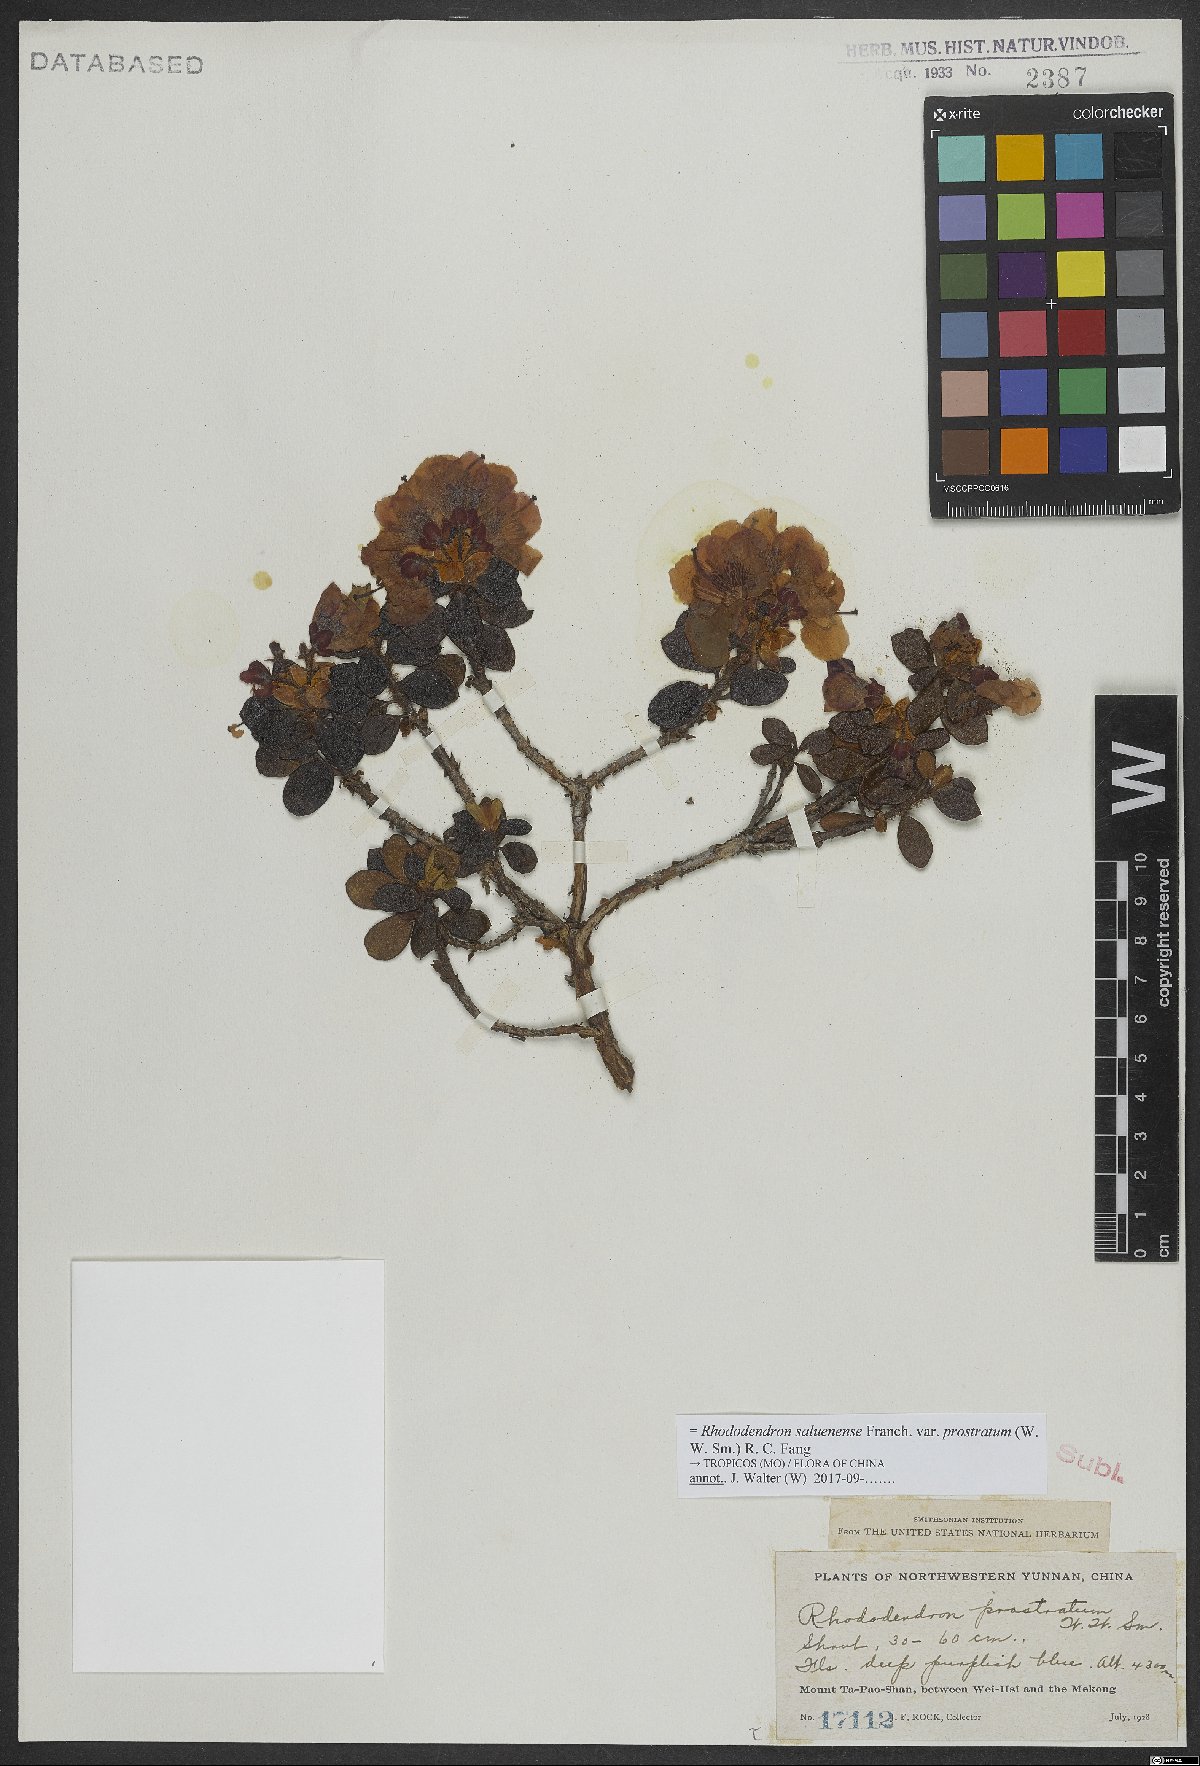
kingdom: Plantae
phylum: Tracheophyta
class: Magnoliopsida
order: Ericales
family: Ericaceae
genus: Rhododendron
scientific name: Rhododendron saluenense
